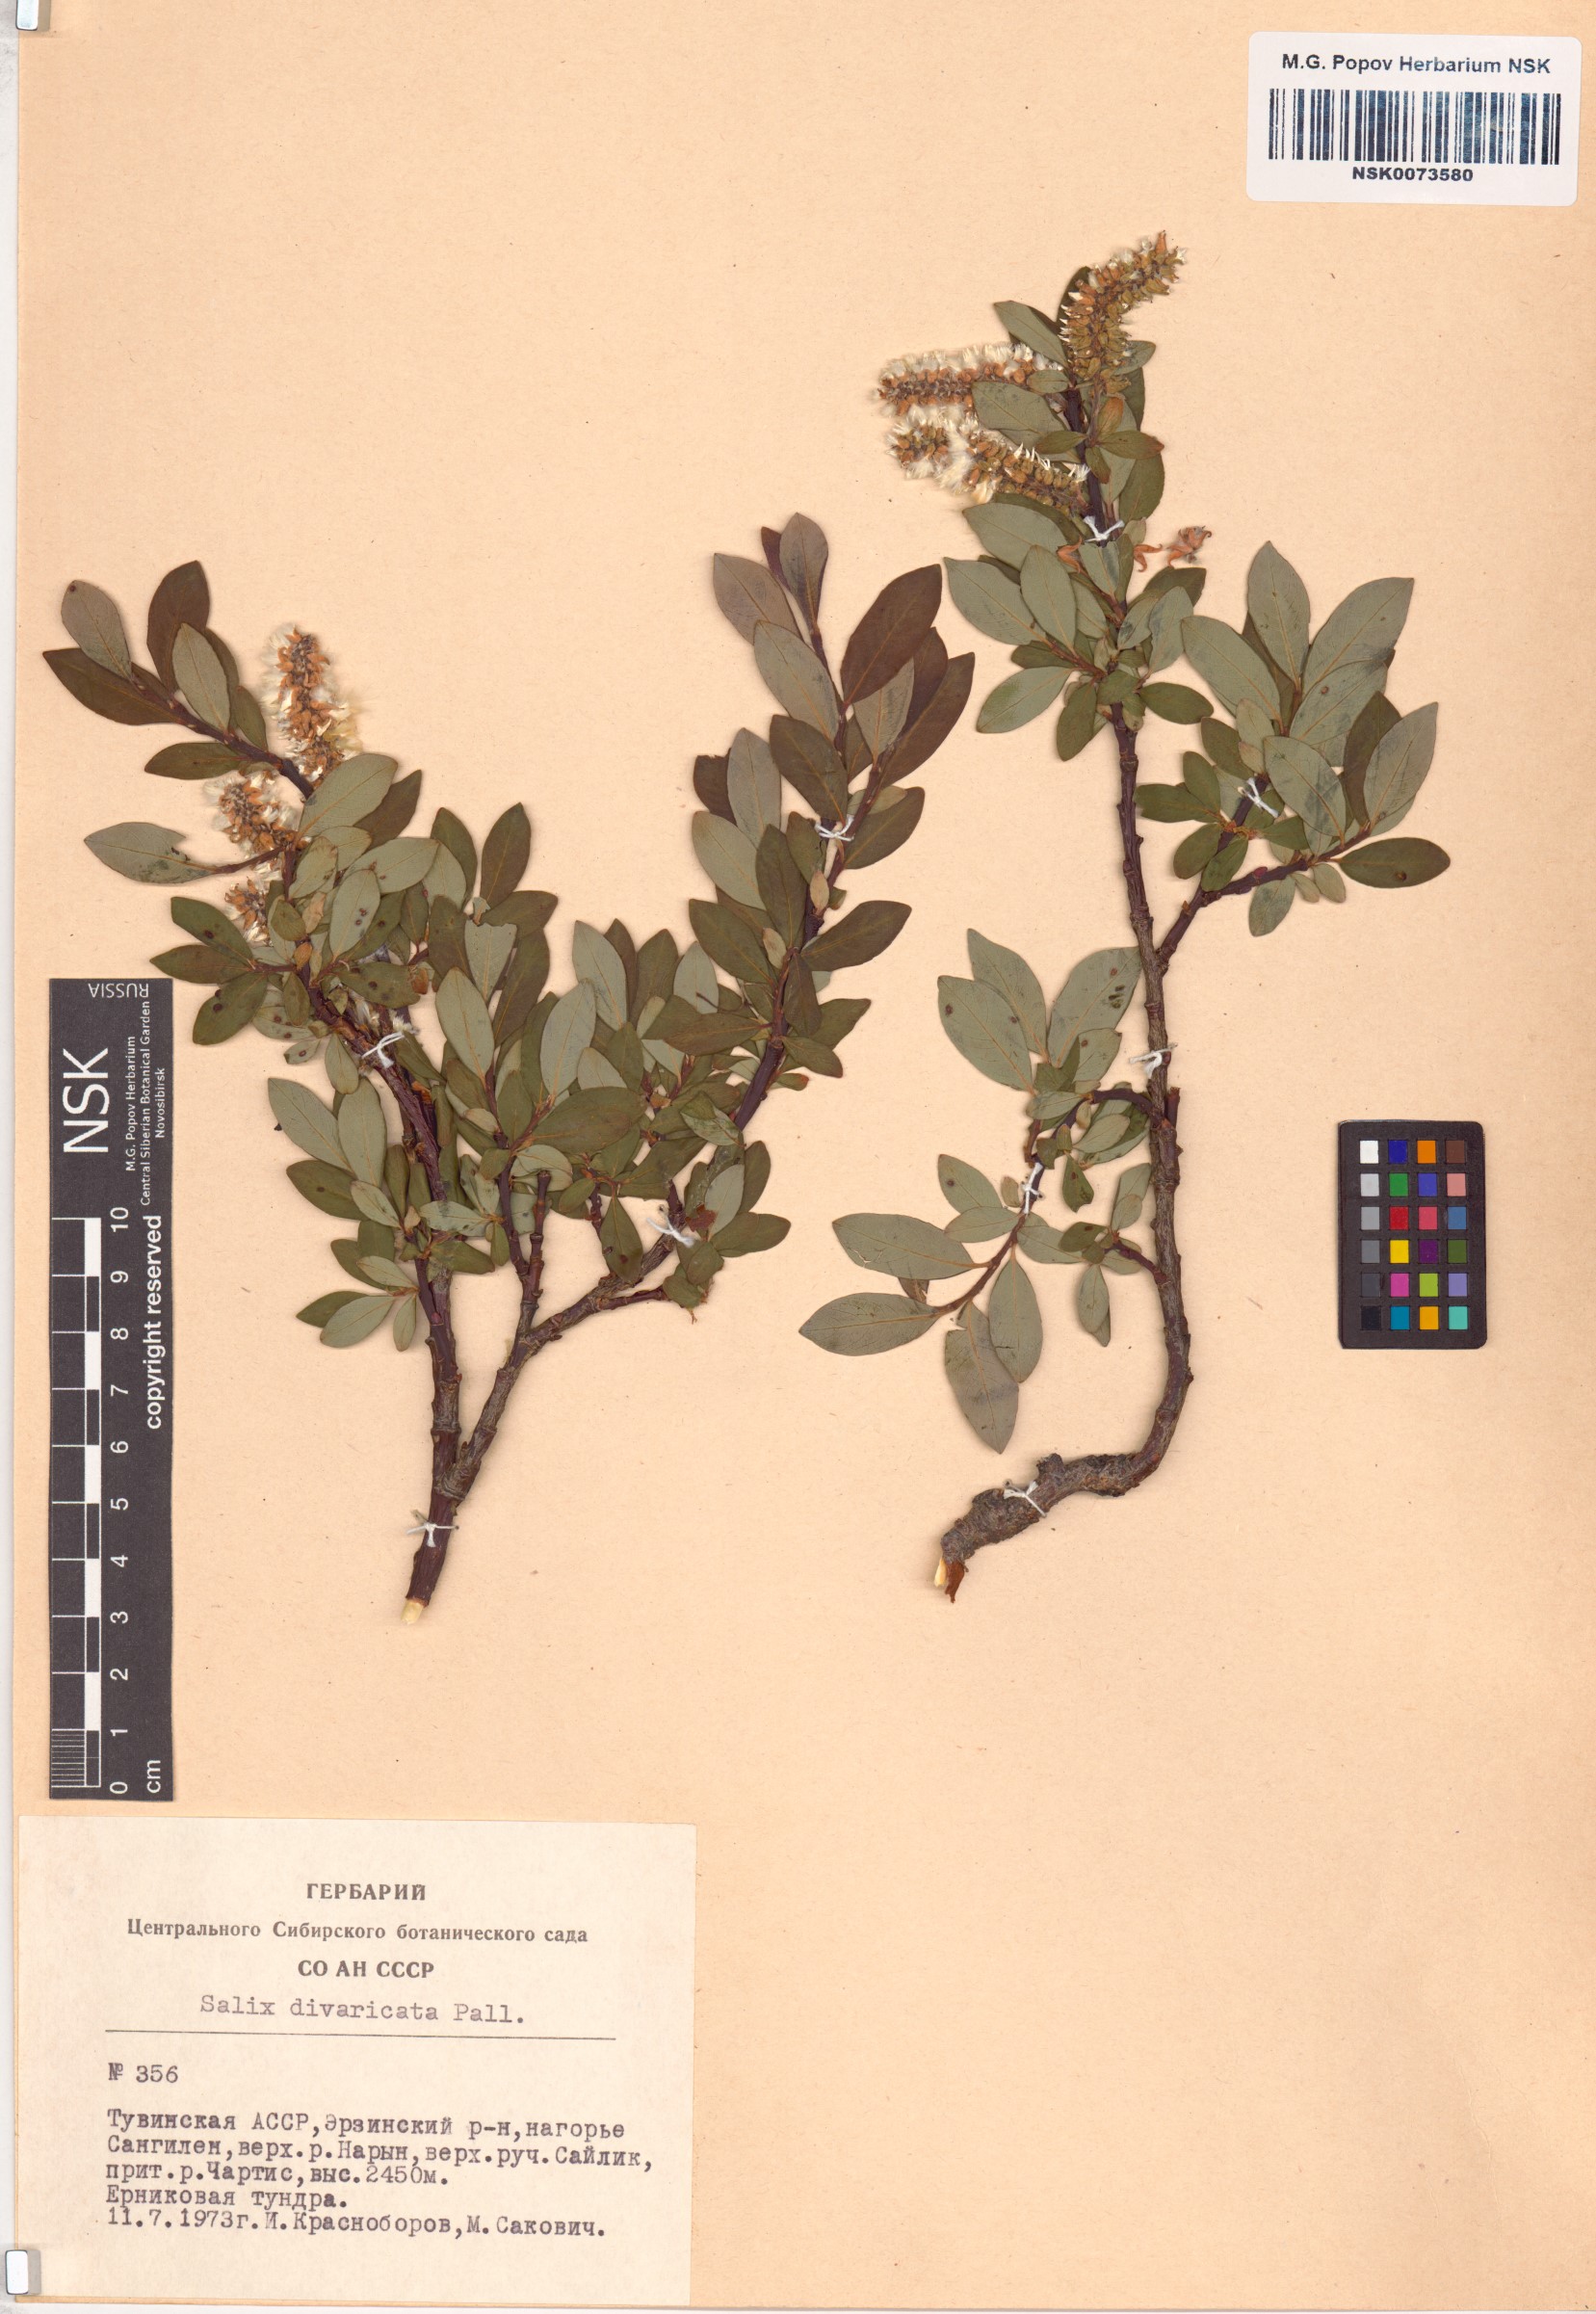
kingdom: Plantae
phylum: Tracheophyta
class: Magnoliopsida
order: Malpighiales
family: Salicaceae
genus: Salix
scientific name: Salix divaricata
